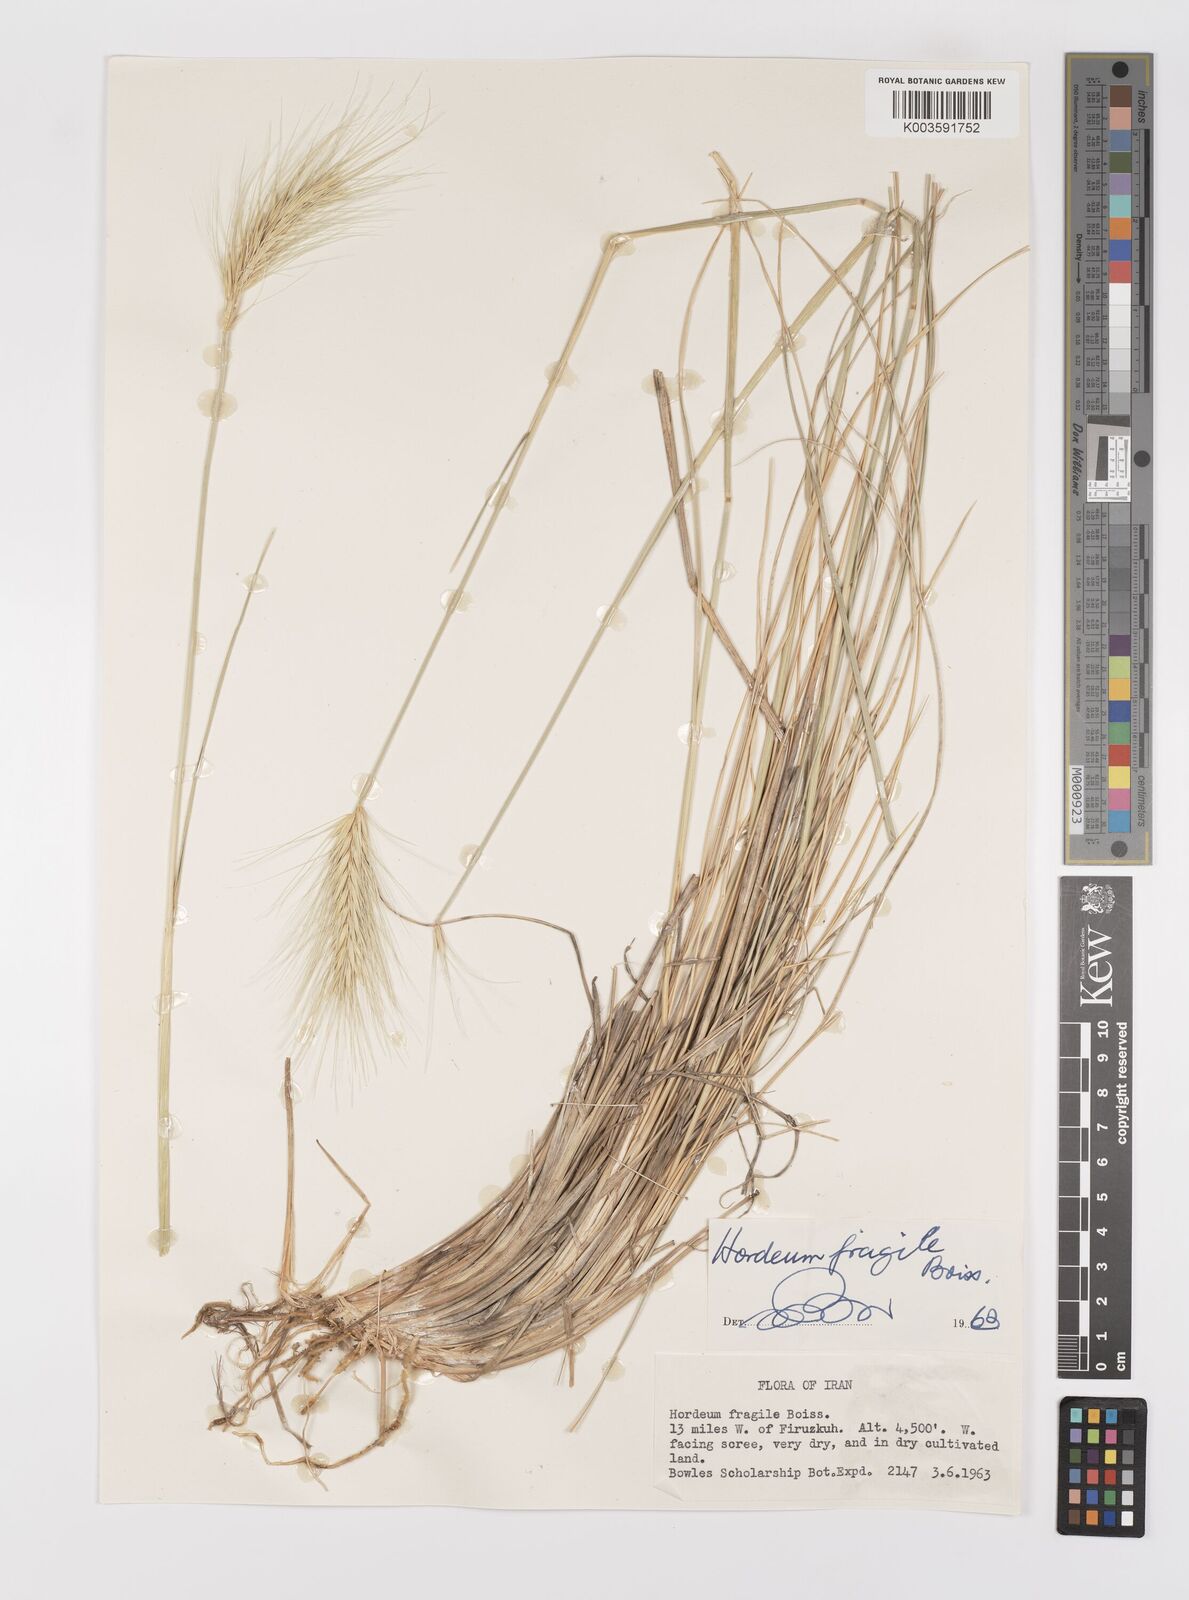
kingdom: Plantae
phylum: Tracheophyta
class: Liliopsida
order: Poales
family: Poaceae
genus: Psathyrostachys
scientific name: Psathyrostachys fragilis
